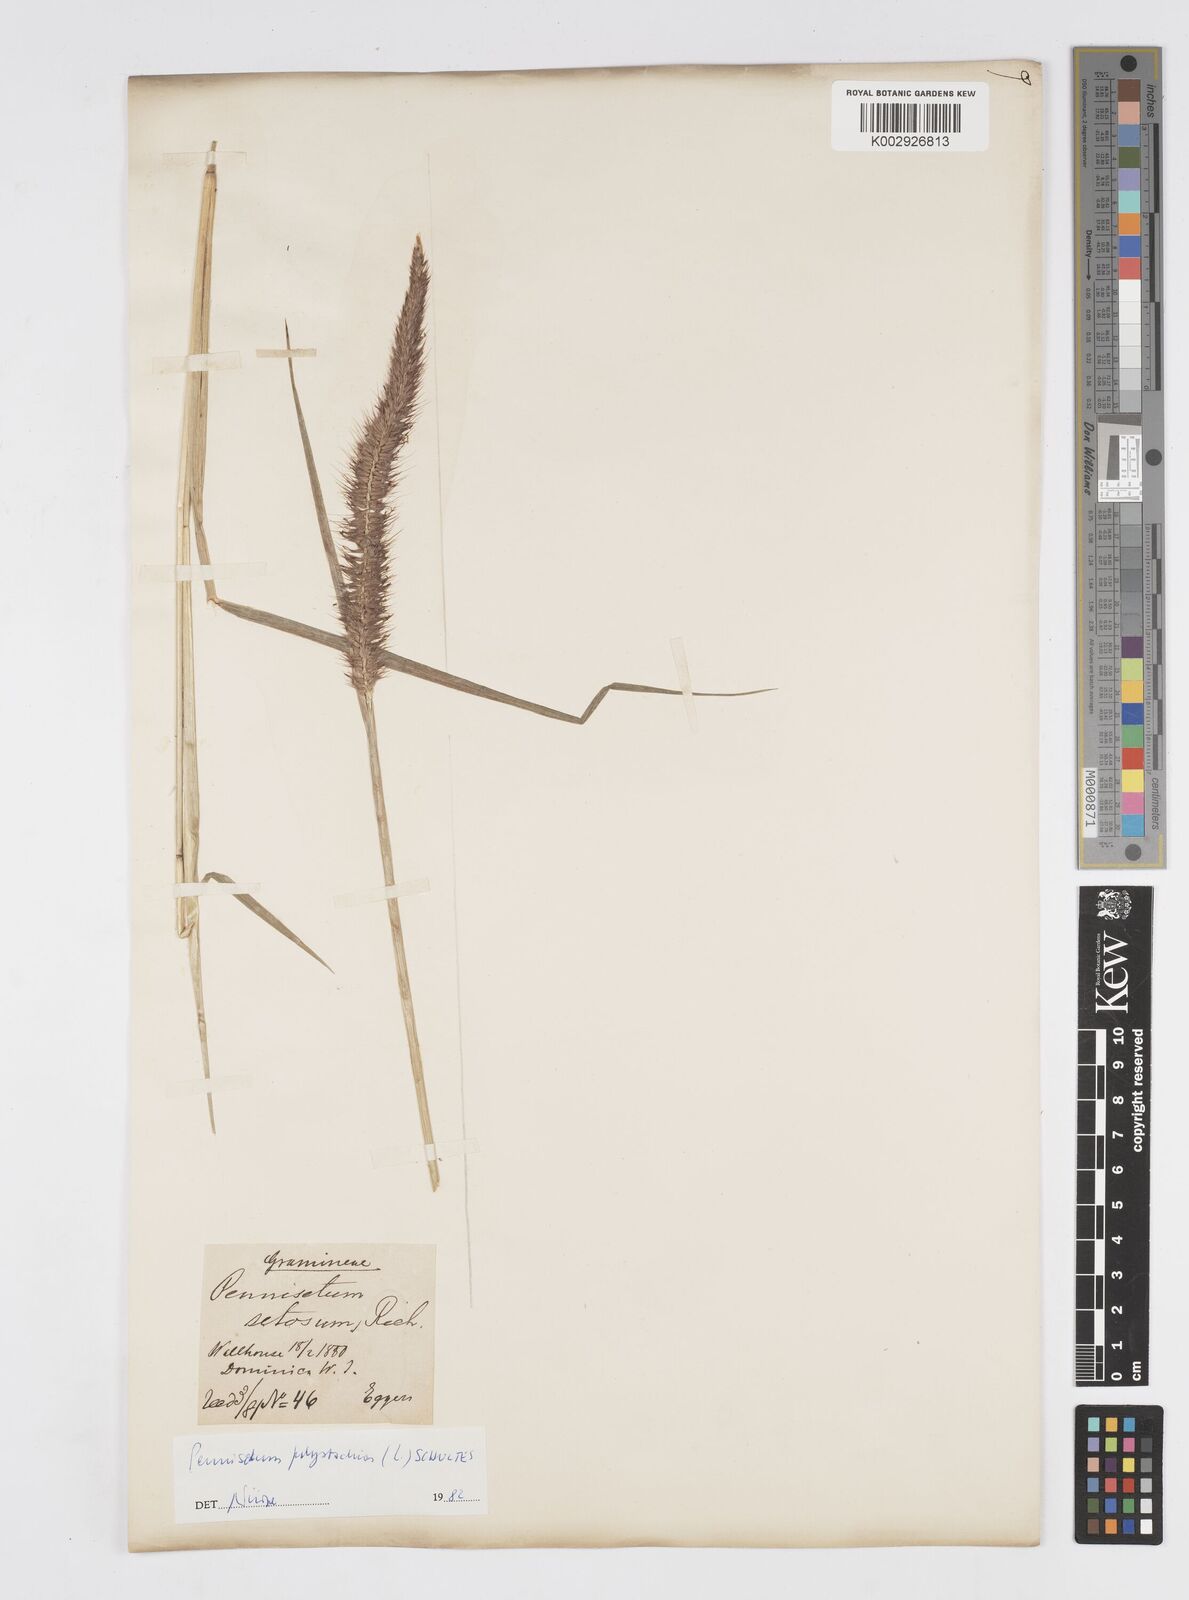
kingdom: Plantae
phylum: Tracheophyta
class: Liliopsida
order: Poales
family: Poaceae
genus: Cenchrus
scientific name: Cenchrus setosus
